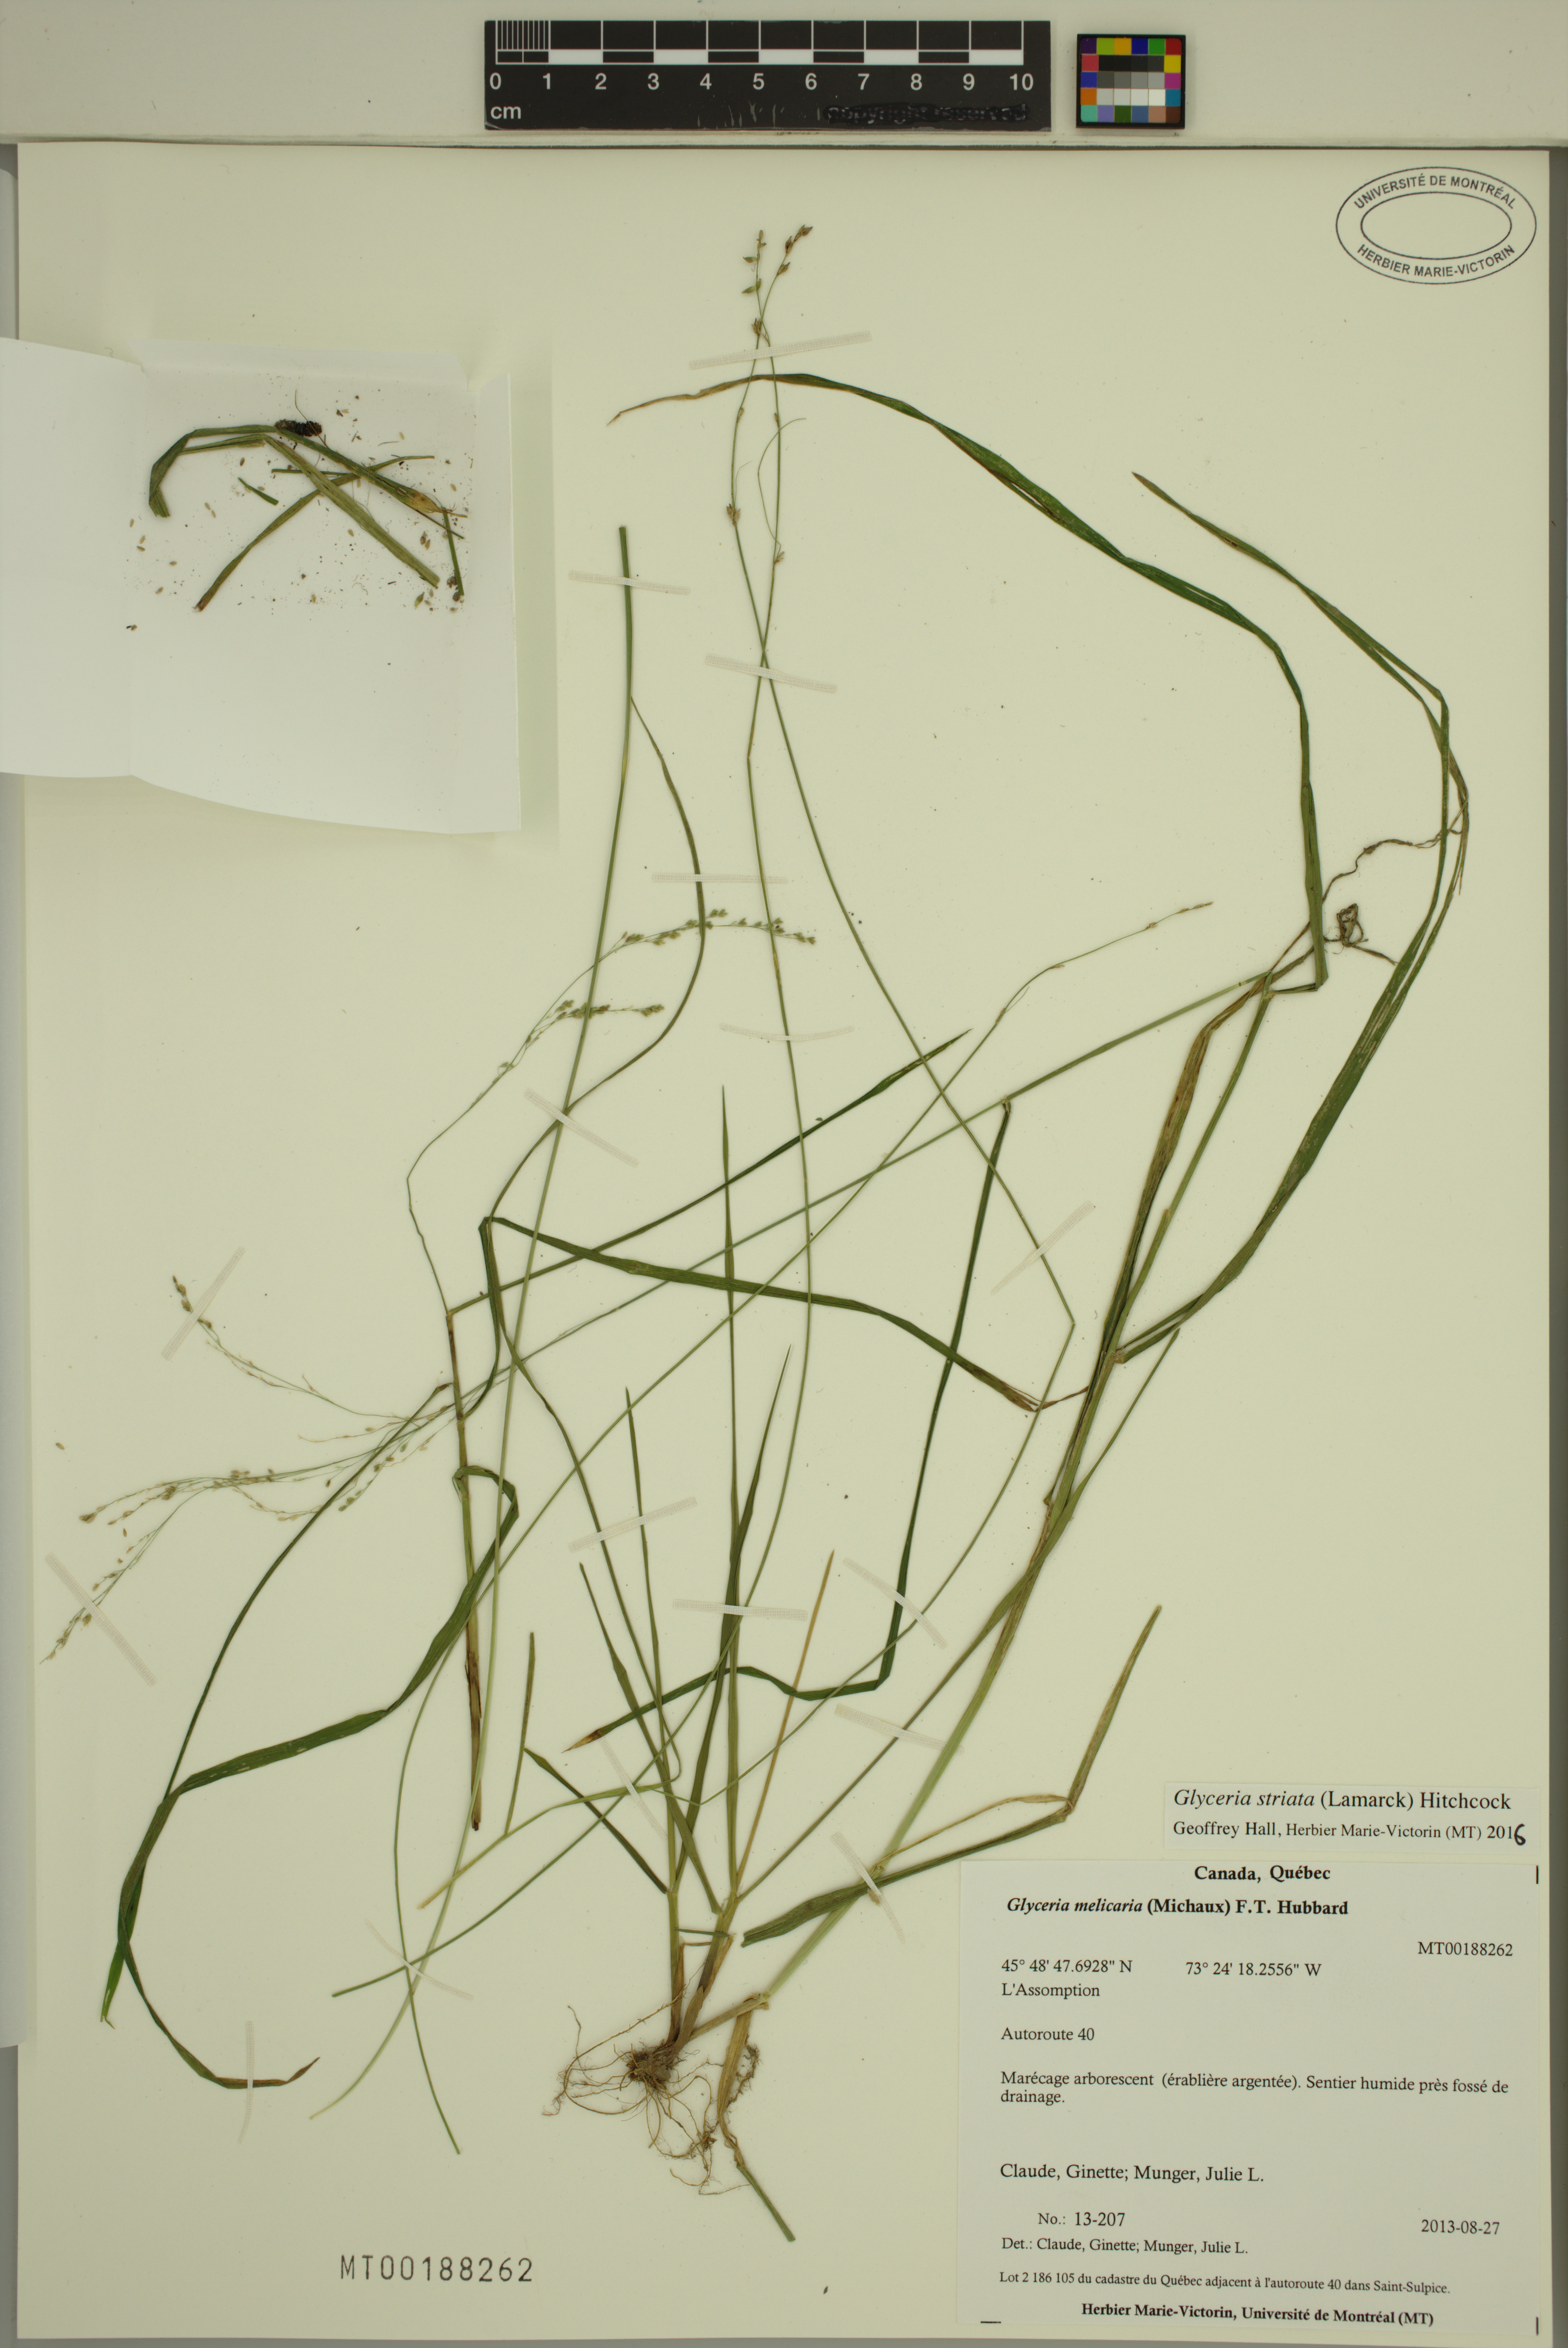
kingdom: Plantae
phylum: Tracheophyta
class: Liliopsida
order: Poales
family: Poaceae
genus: Glyceria
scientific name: Glyceria striata
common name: Fowl manna grass
